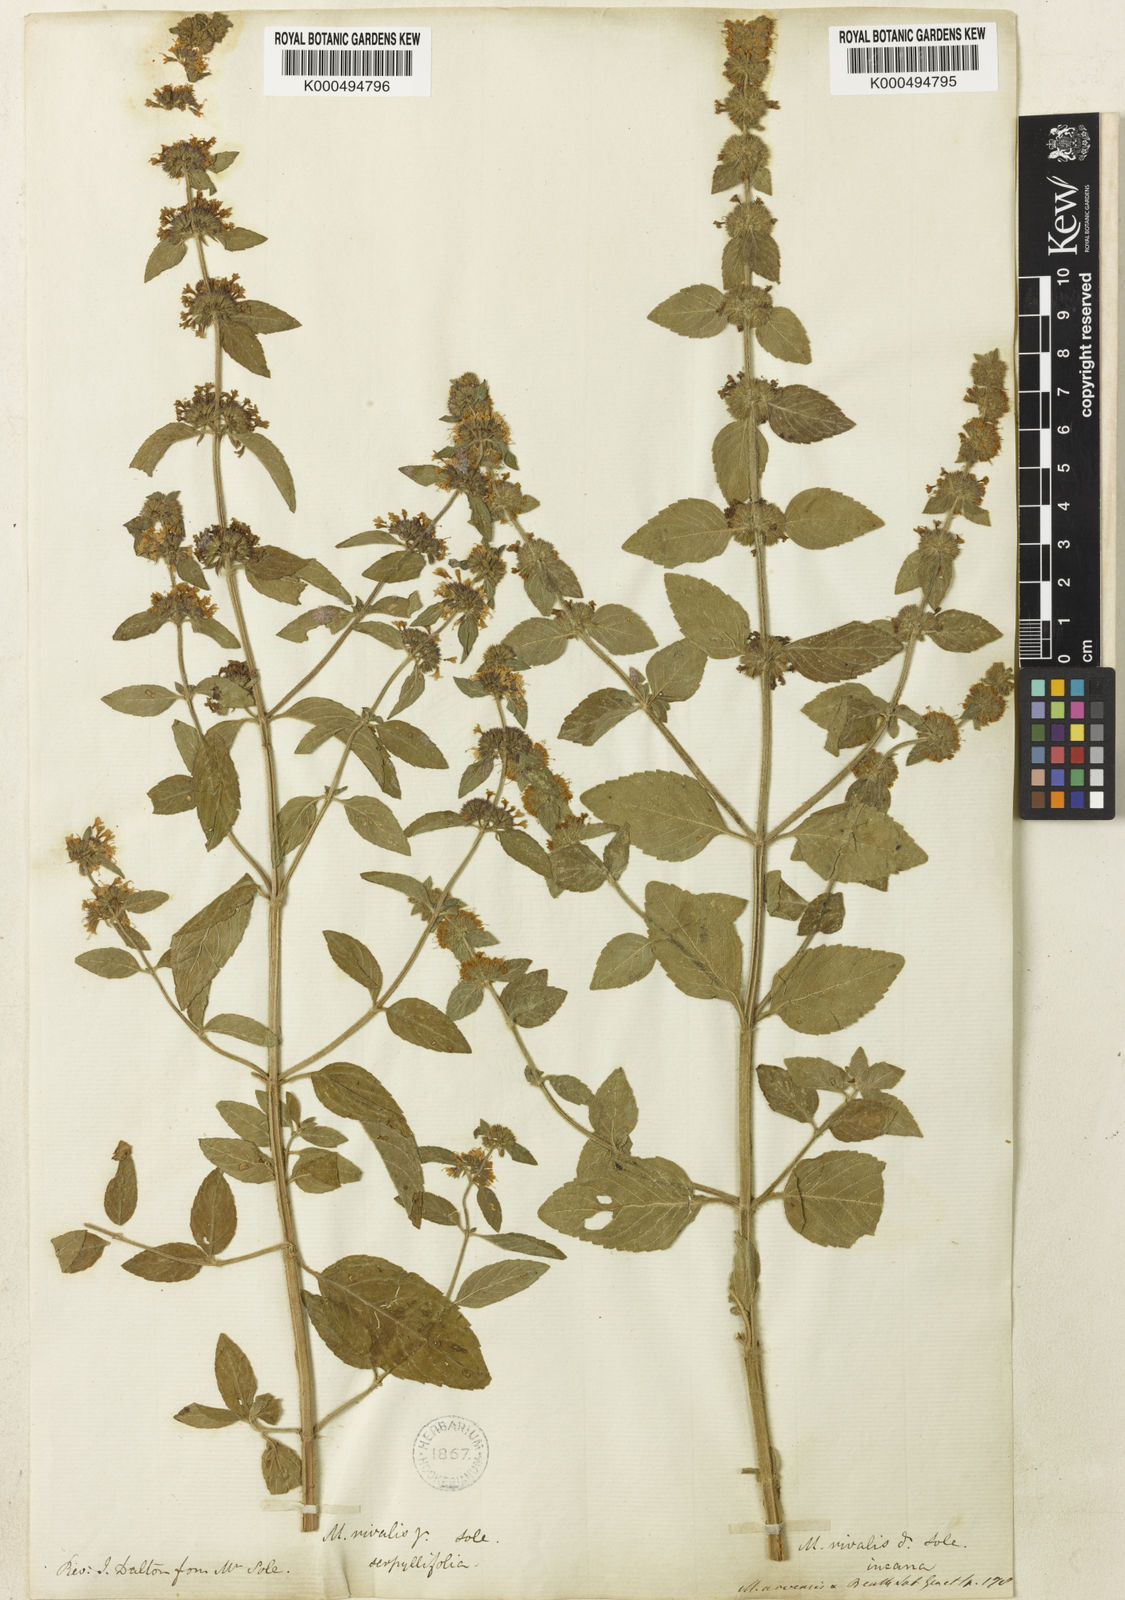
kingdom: Plantae
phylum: Tracheophyta
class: Magnoliopsida
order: Lamiales
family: Lamiaceae
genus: Mentha
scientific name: Mentha verticillata
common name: Mint
